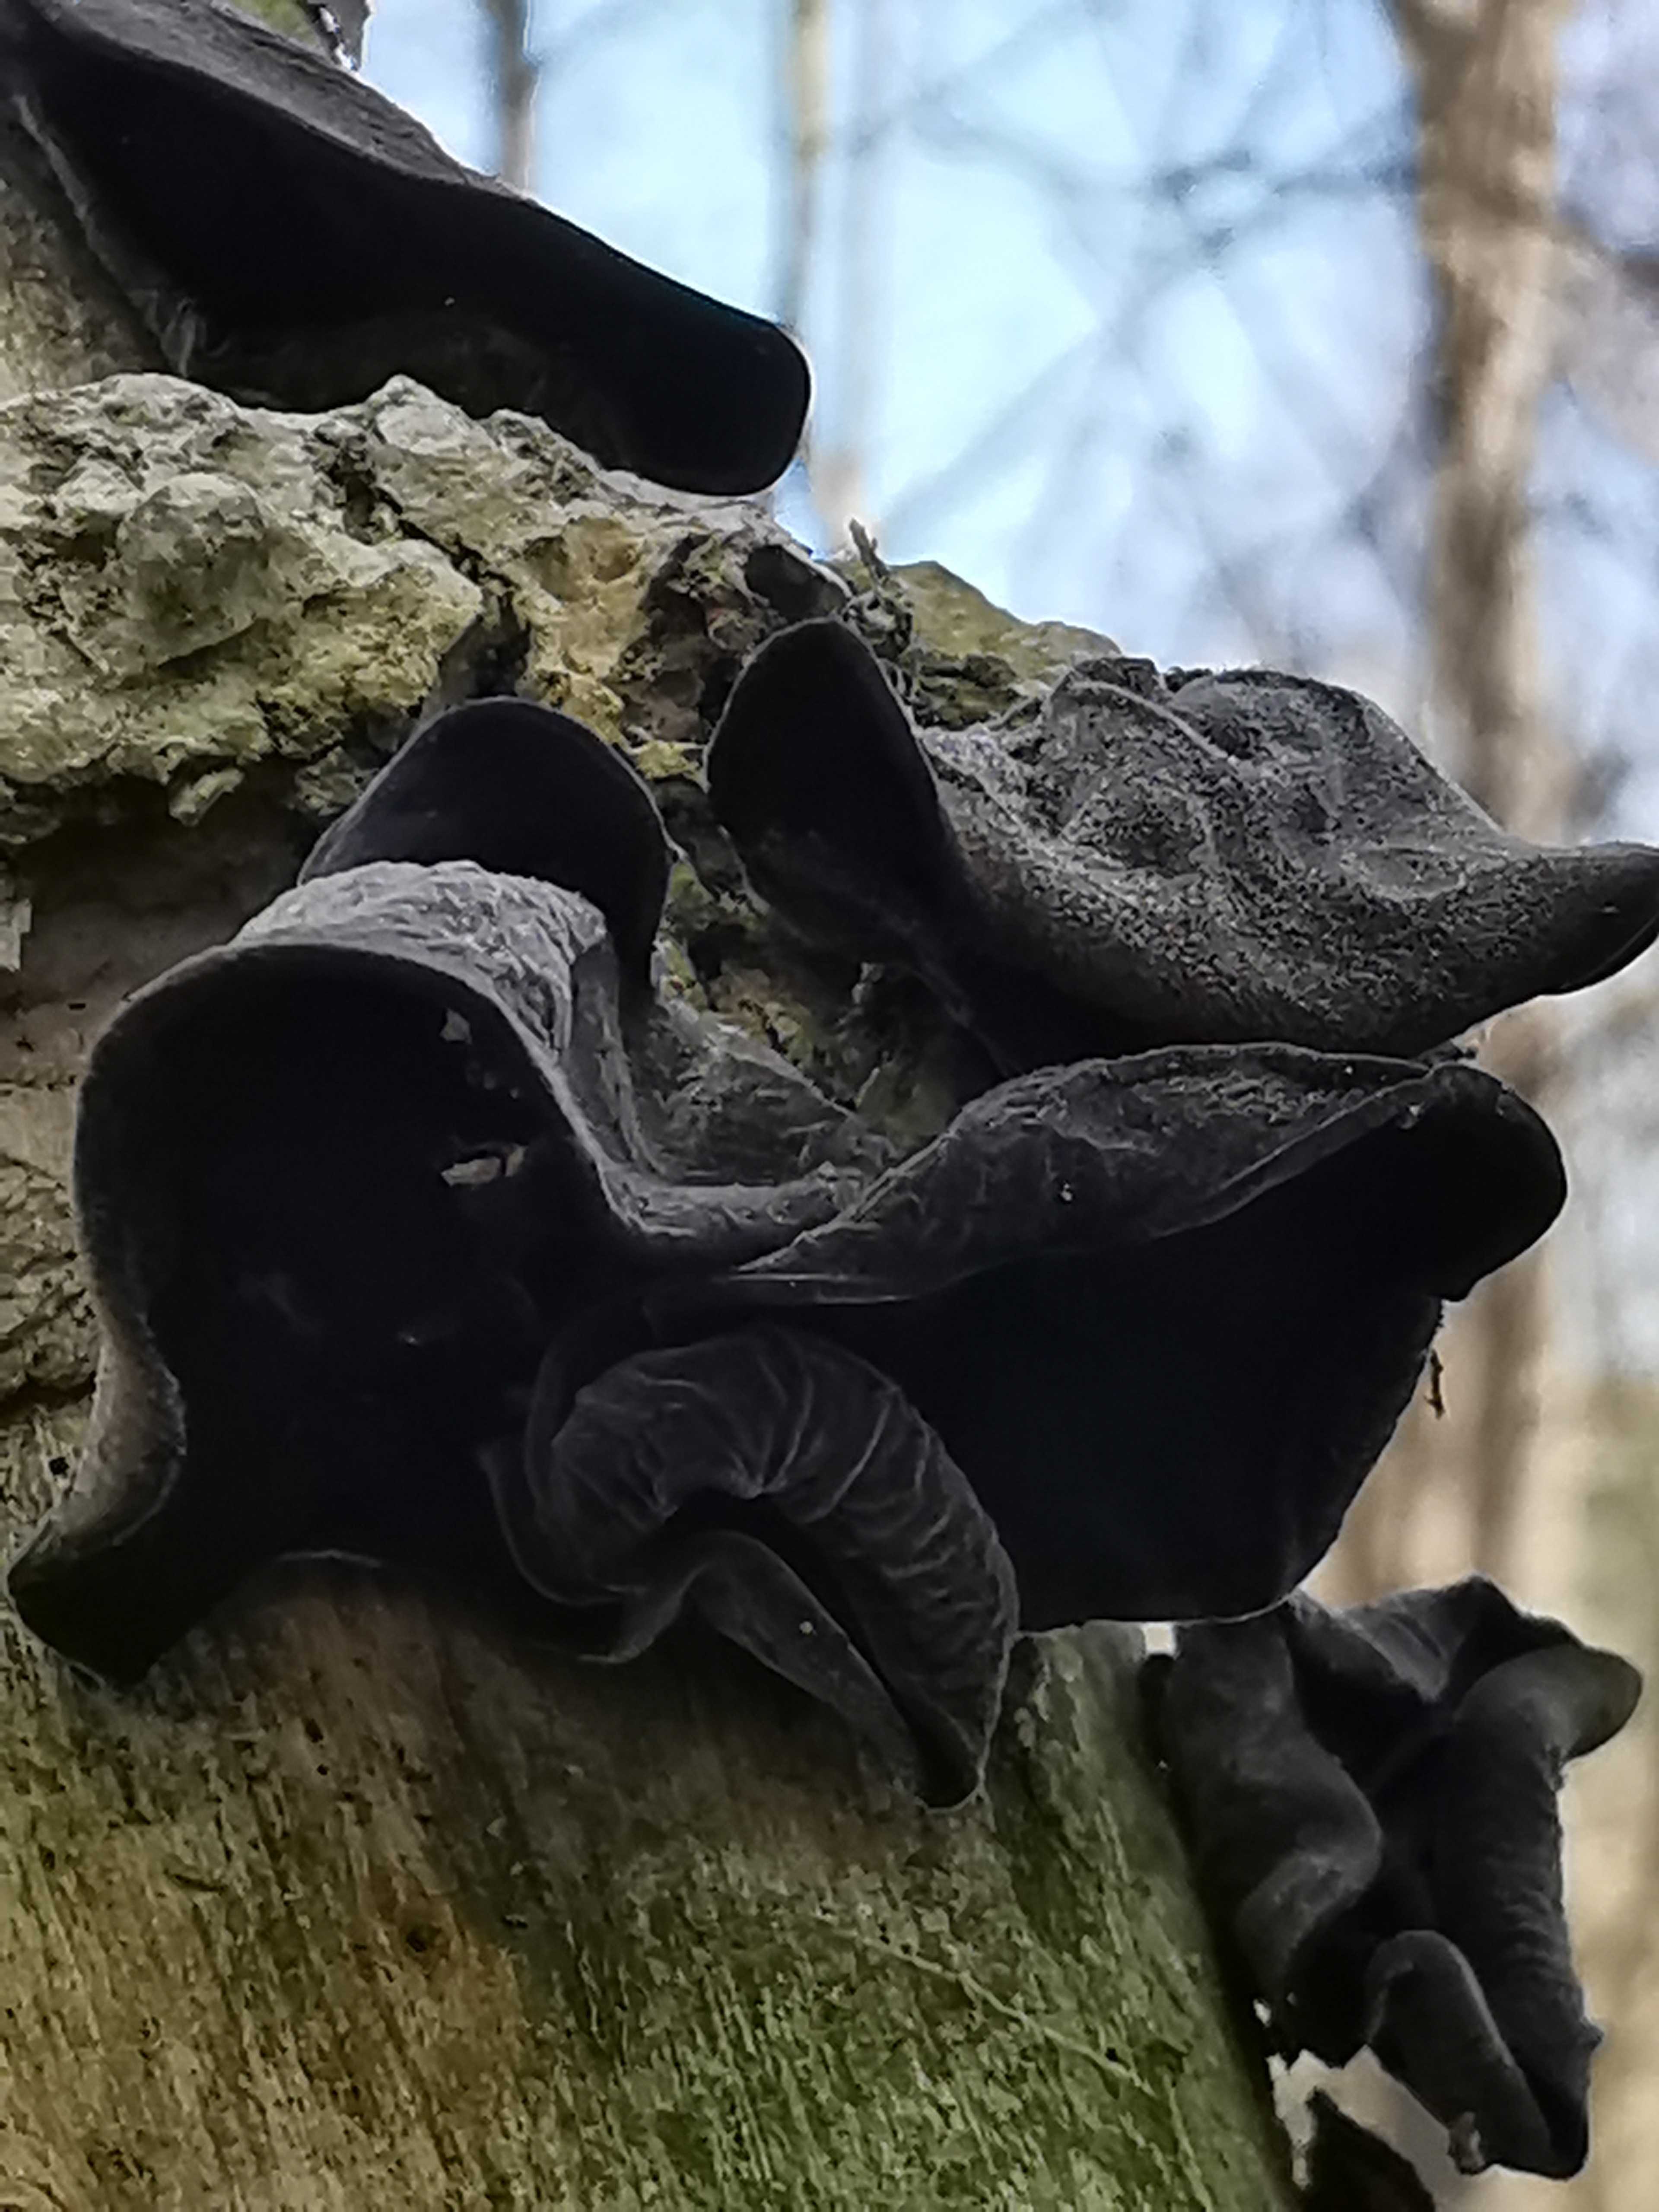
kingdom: Fungi
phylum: Basidiomycota
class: Agaricomycetes
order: Auriculariales
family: Auriculariaceae
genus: Auricularia
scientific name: Auricularia auricula-judae
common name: almindelig judasøre
